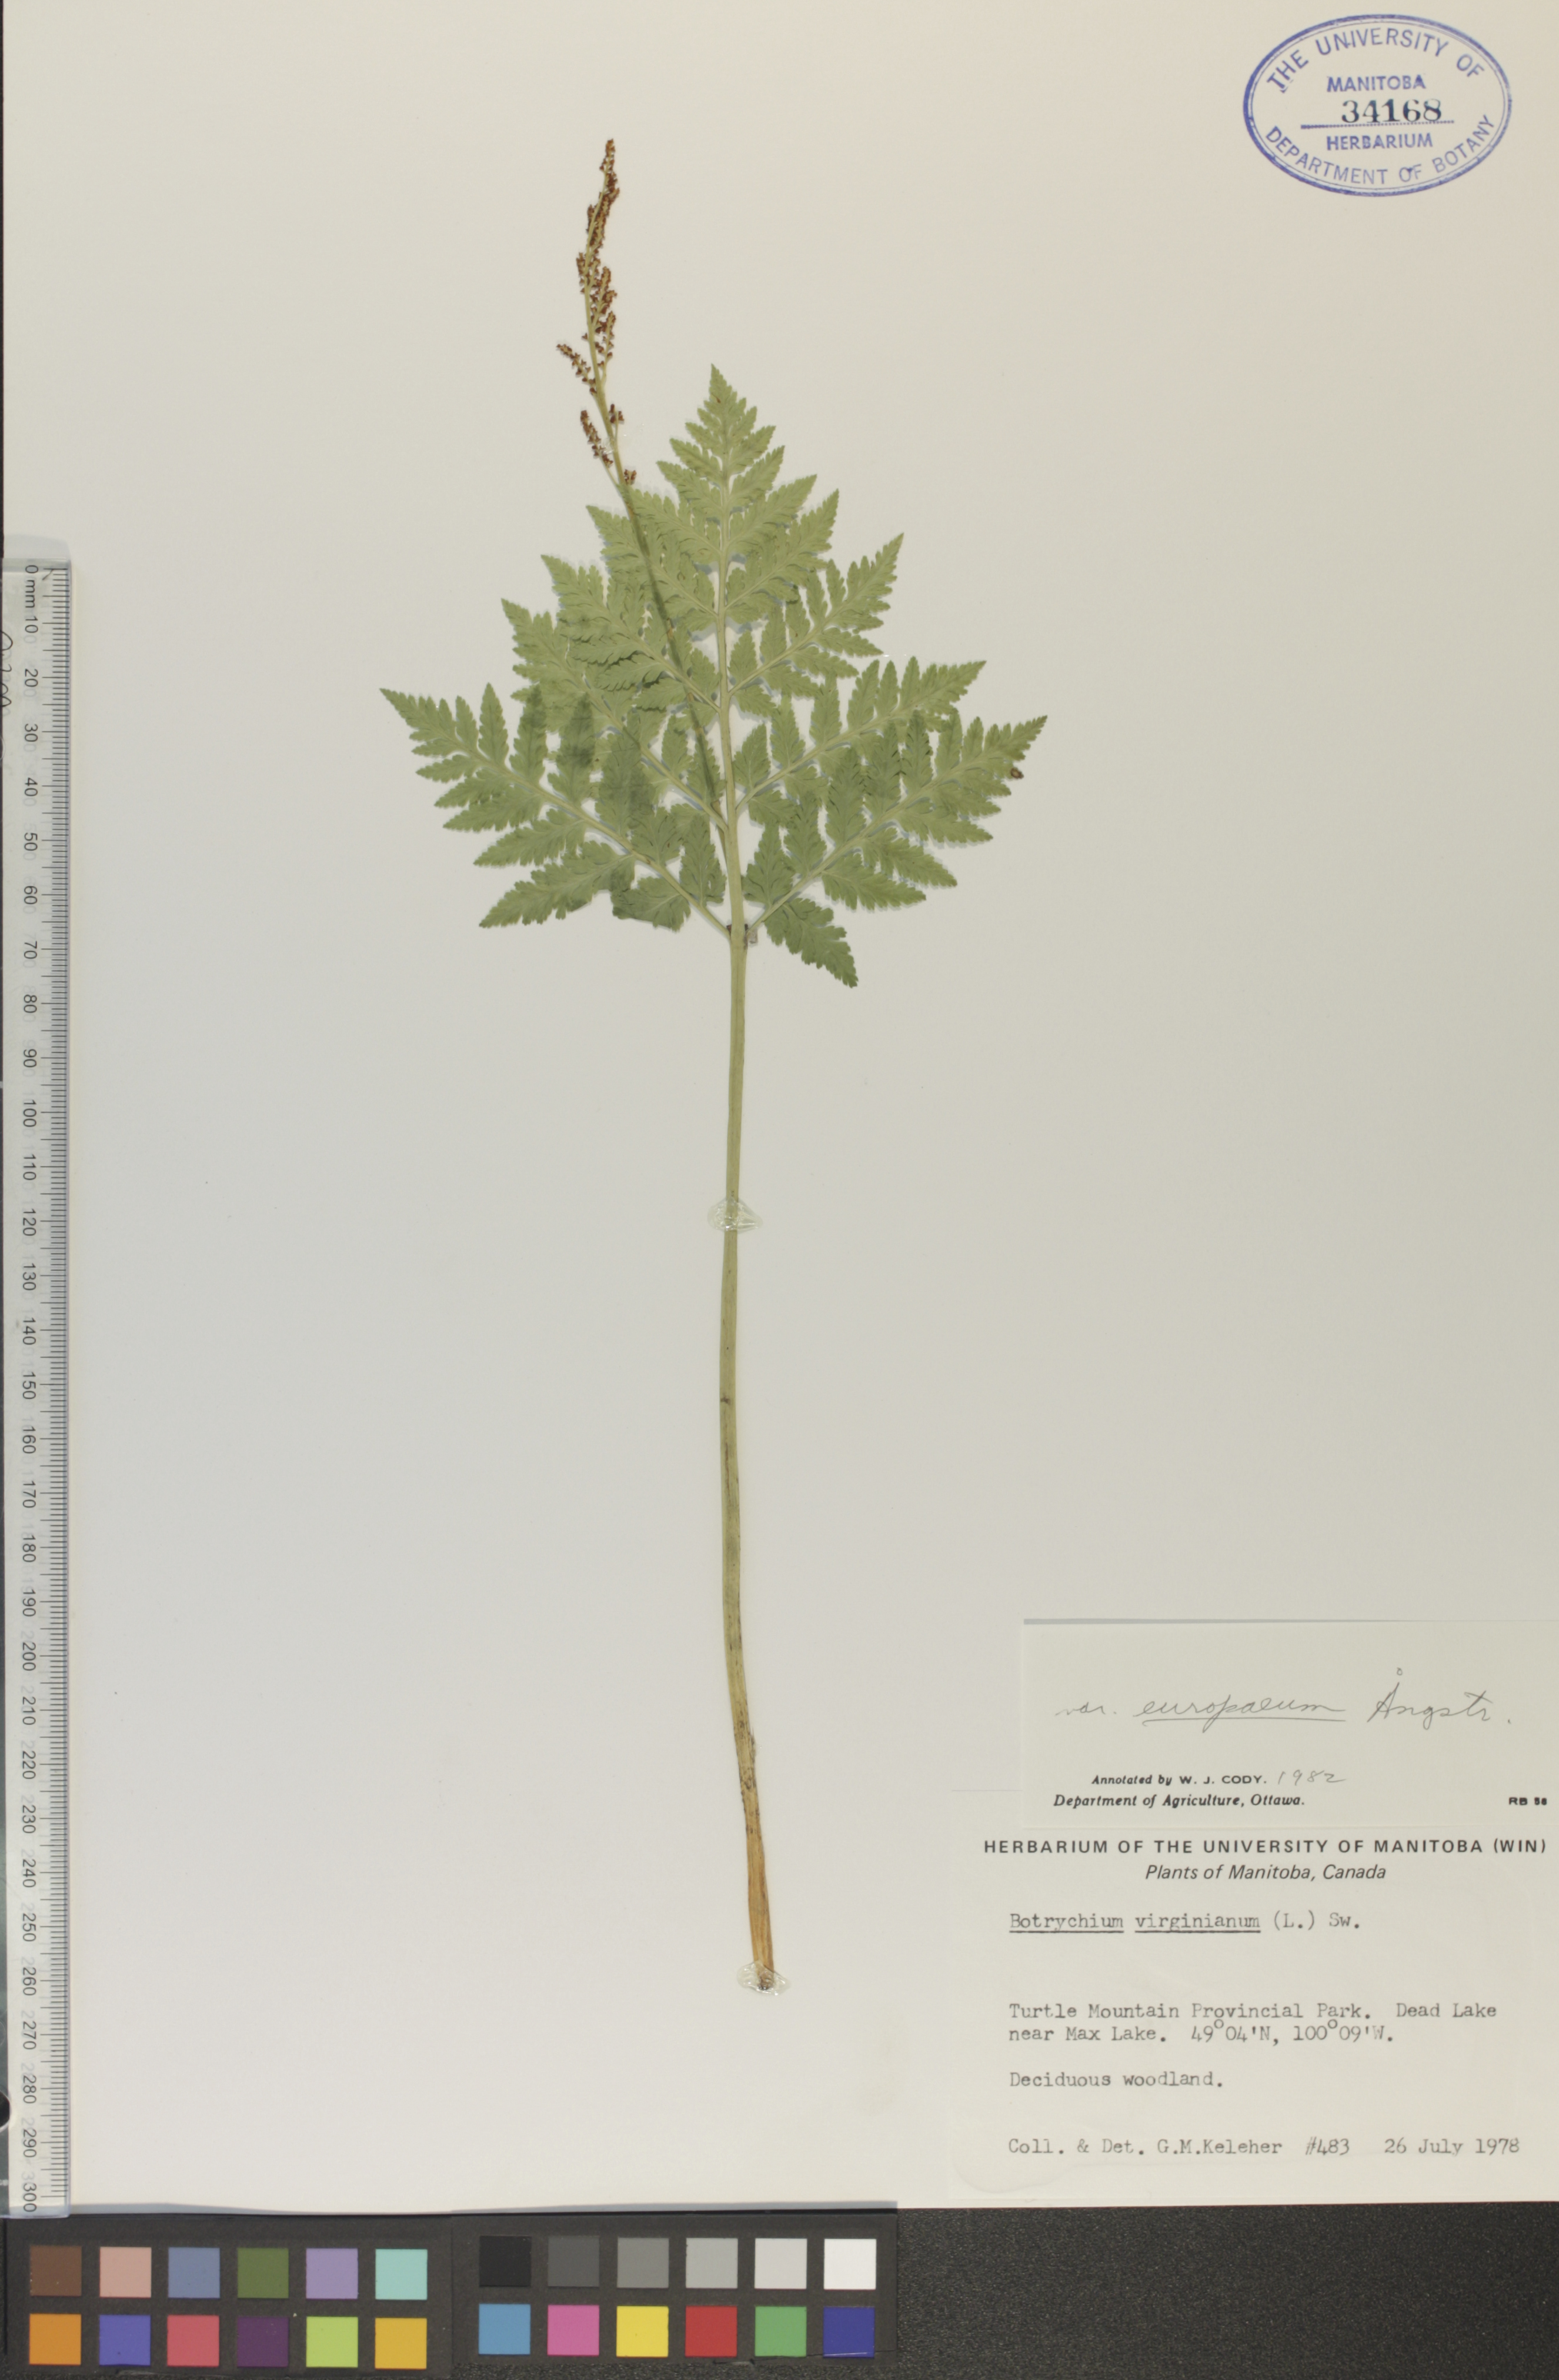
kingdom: Plantae
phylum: Tracheophyta
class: Polypodiopsida
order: Ophioglossales
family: Ophioglossaceae
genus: Botrypus
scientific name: Botrypus virginianus
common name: Common grapefern
